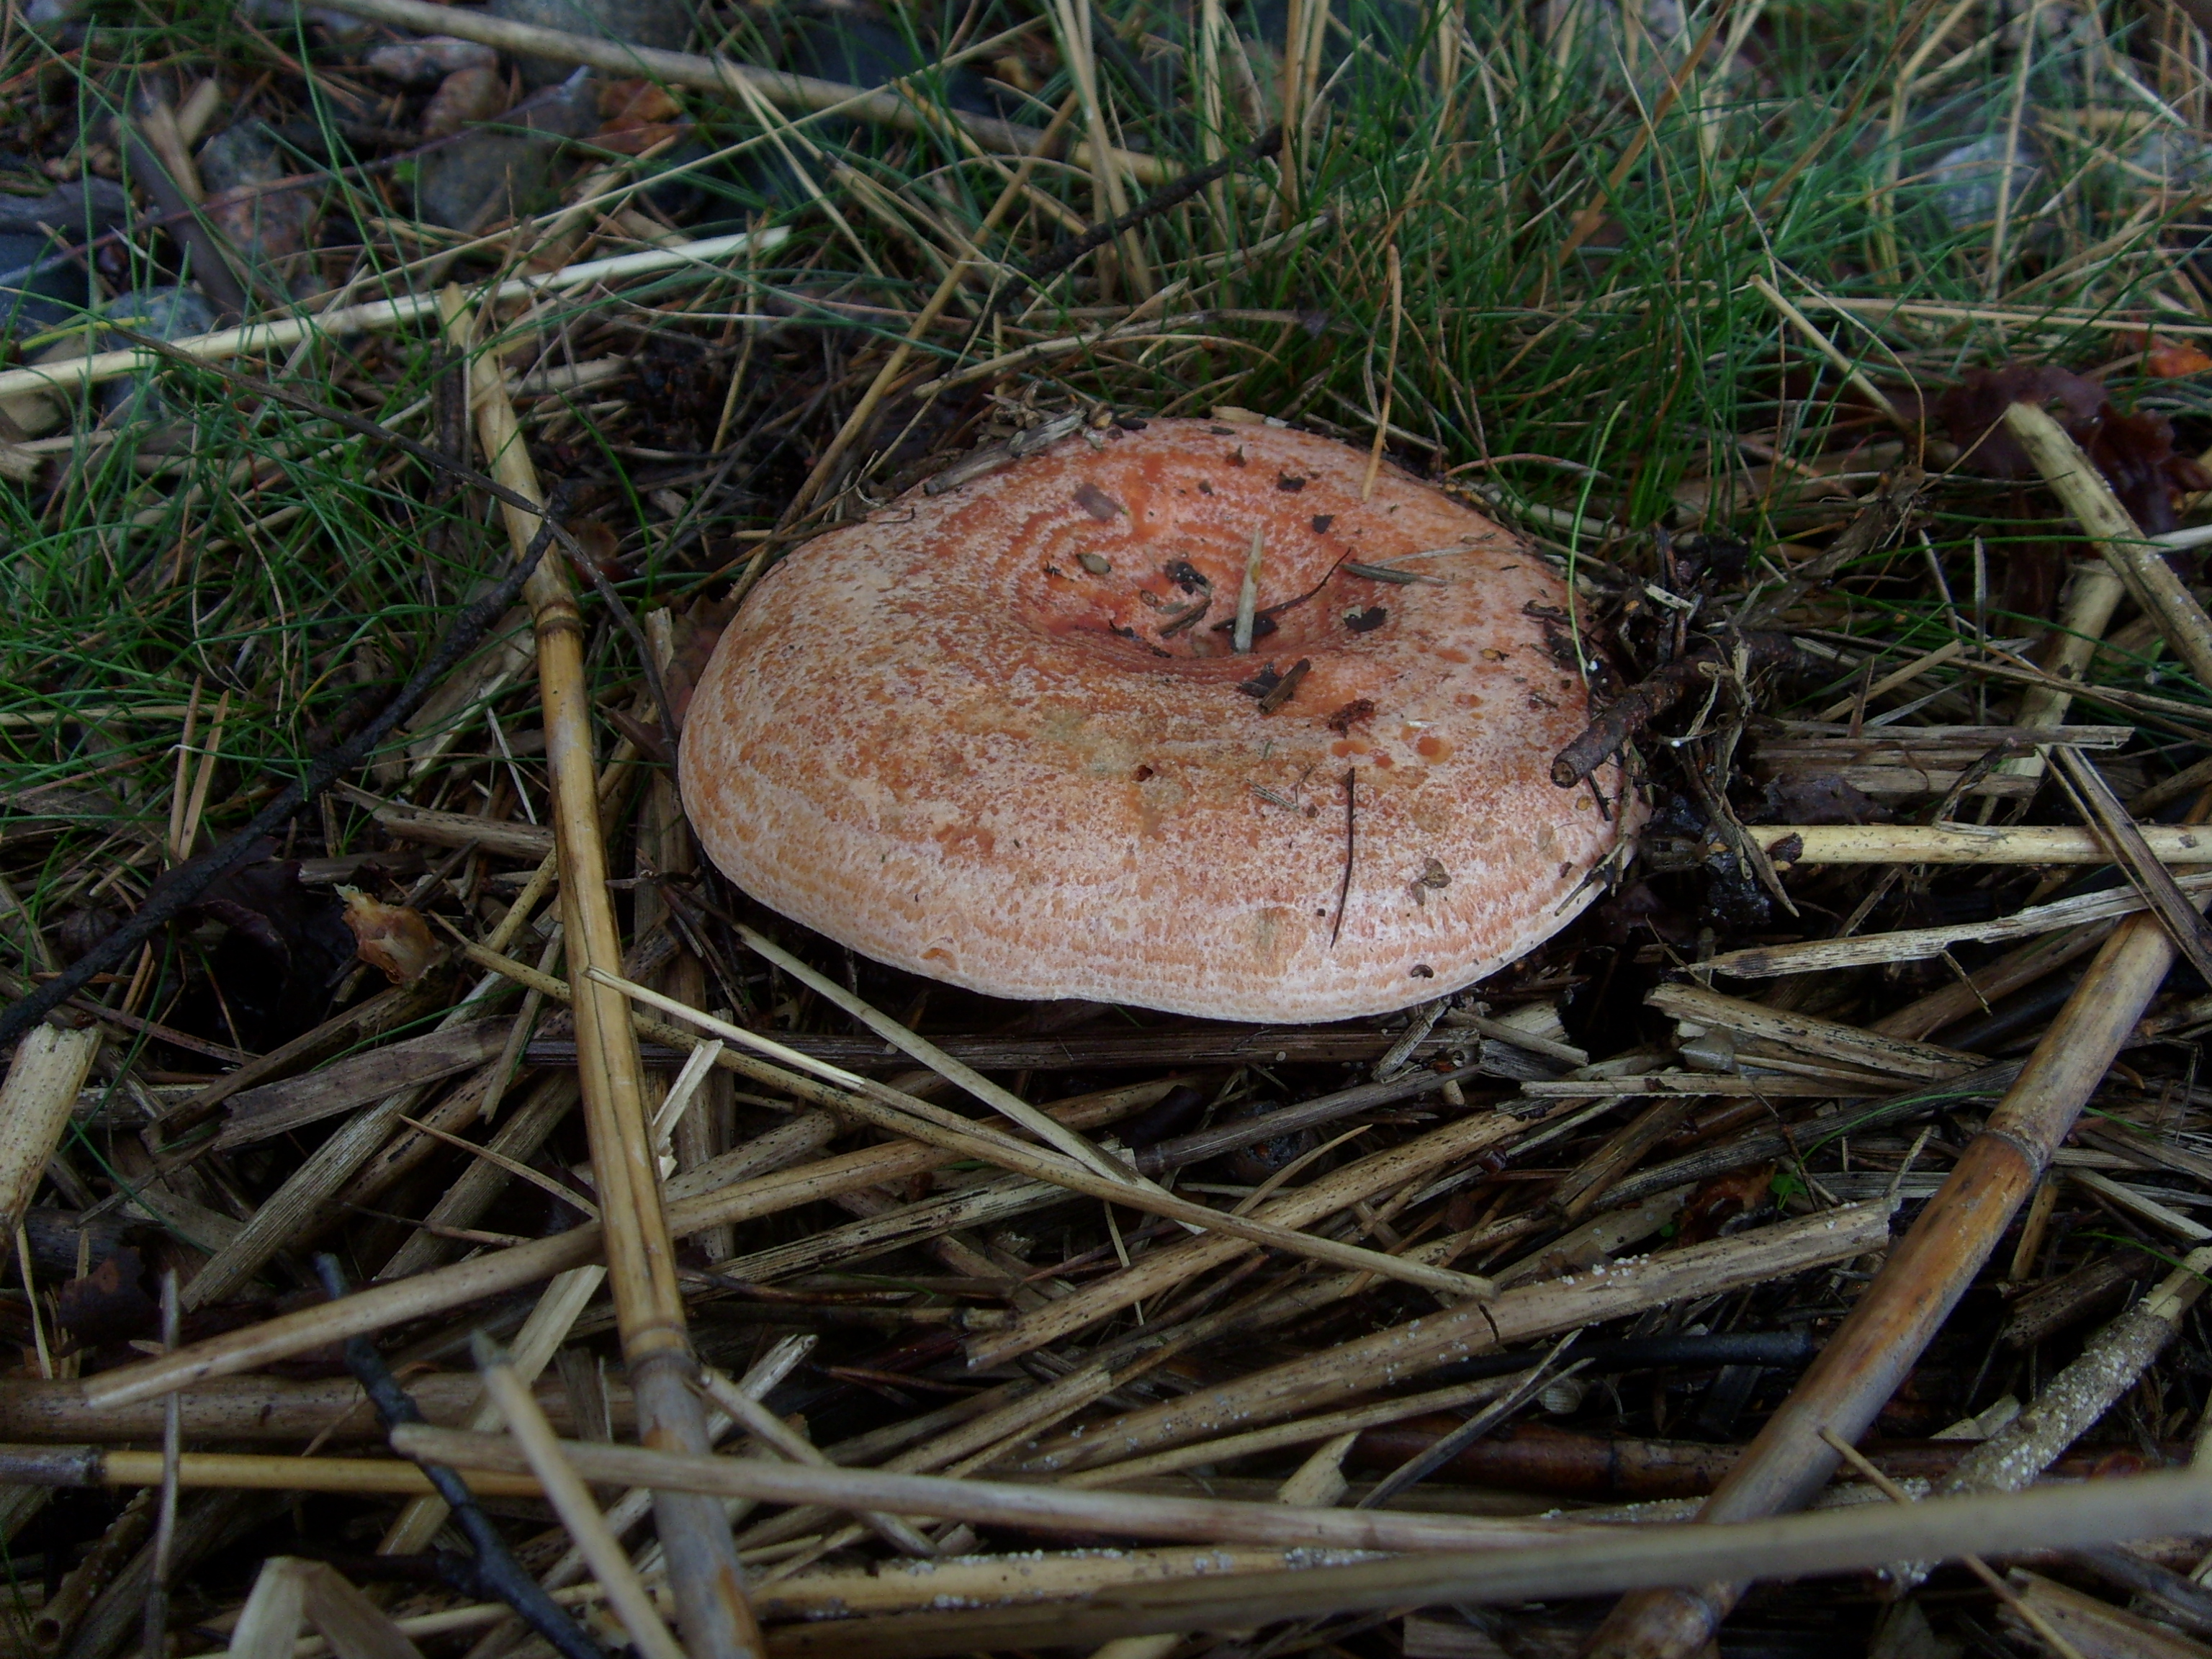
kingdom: Fungi
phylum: Basidiomycota
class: Agaricomycetes
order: Russulales
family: Russulaceae
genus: Lactarius
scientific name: Lactarius deliciosus
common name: Saffron milk-cap
